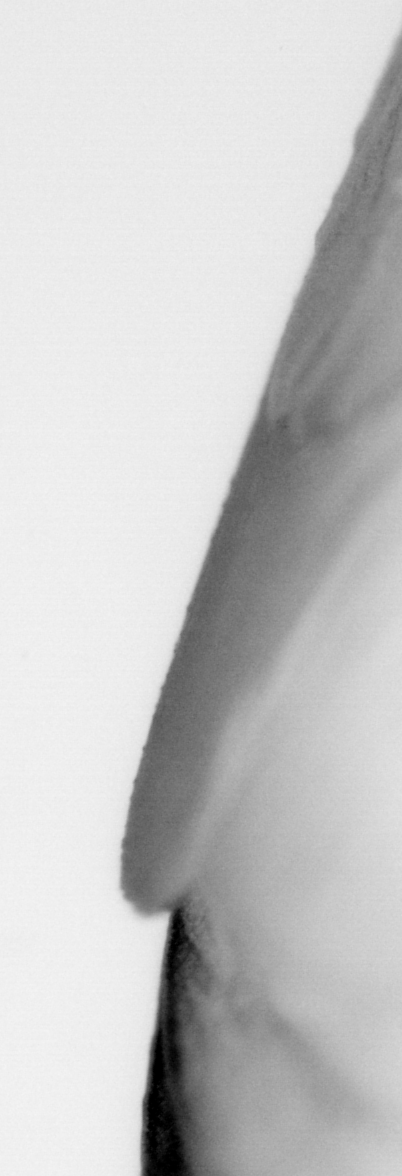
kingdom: Animalia
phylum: Chordata
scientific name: Chordata
